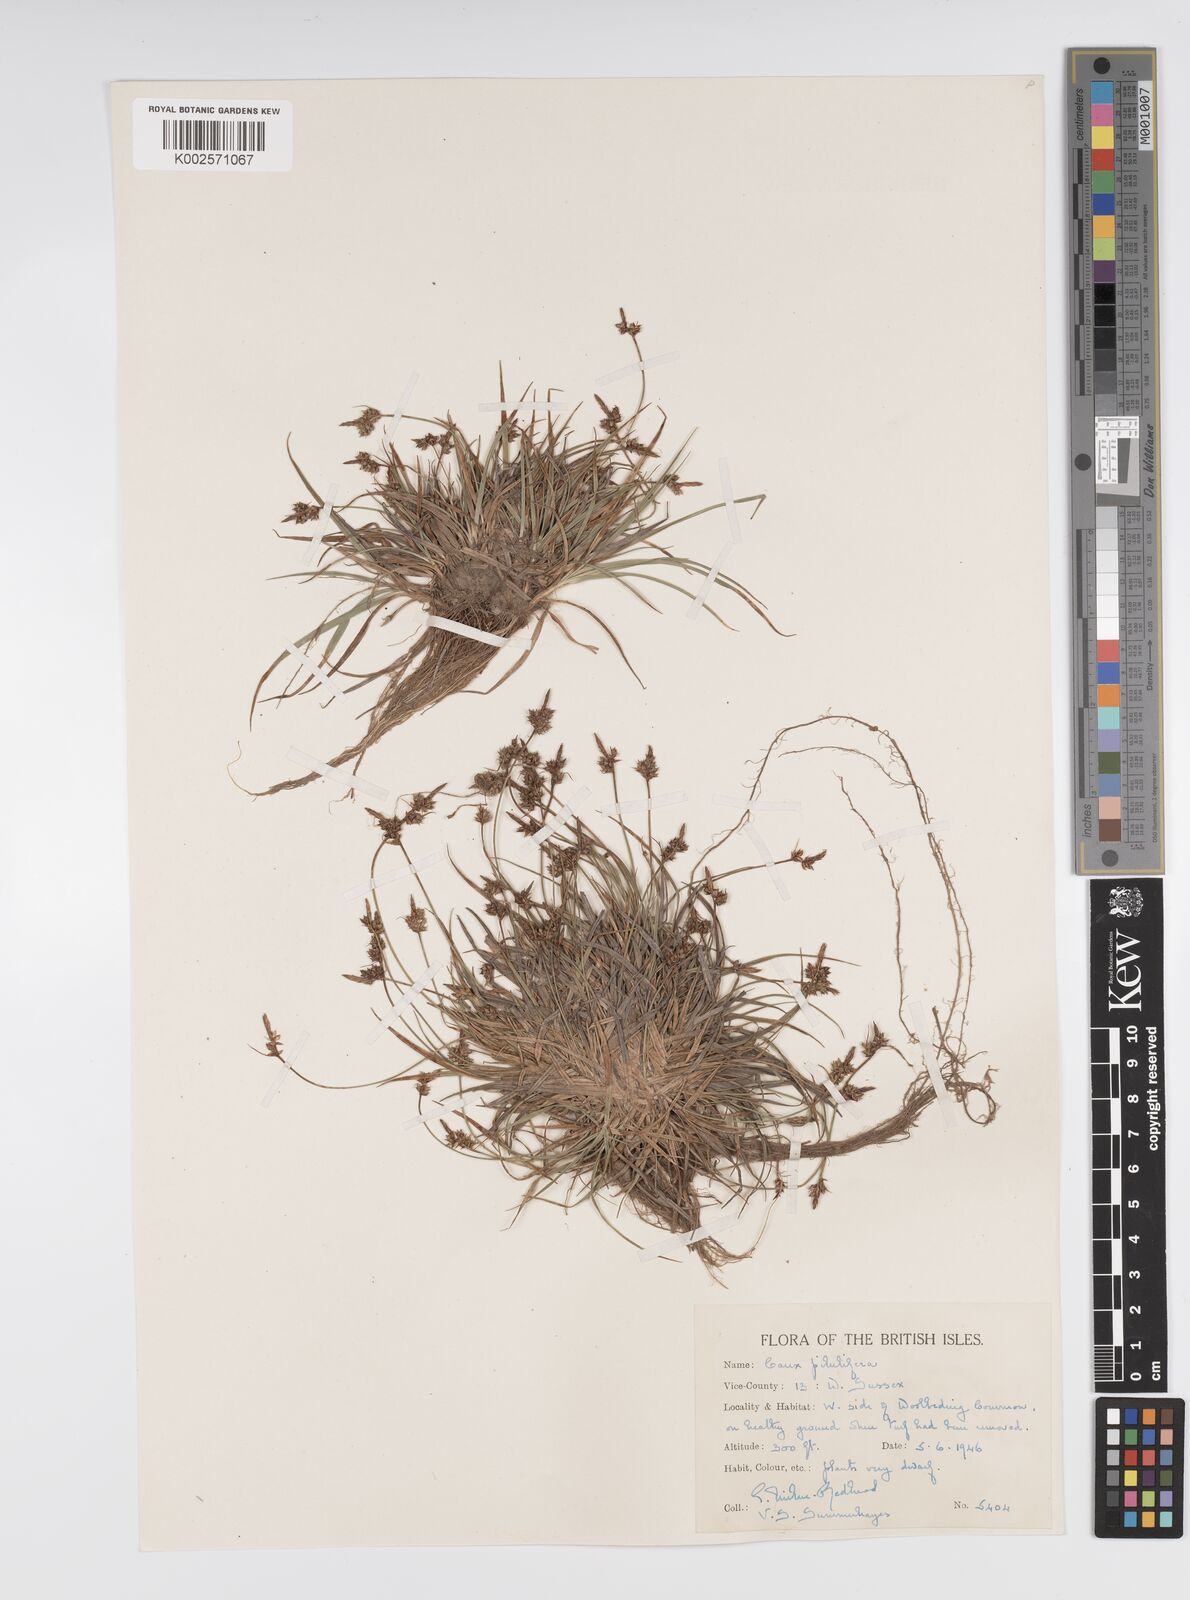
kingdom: Plantae
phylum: Tracheophyta
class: Liliopsida
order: Poales
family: Cyperaceae
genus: Carex
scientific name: Carex pilulifera
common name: Pill sedge
